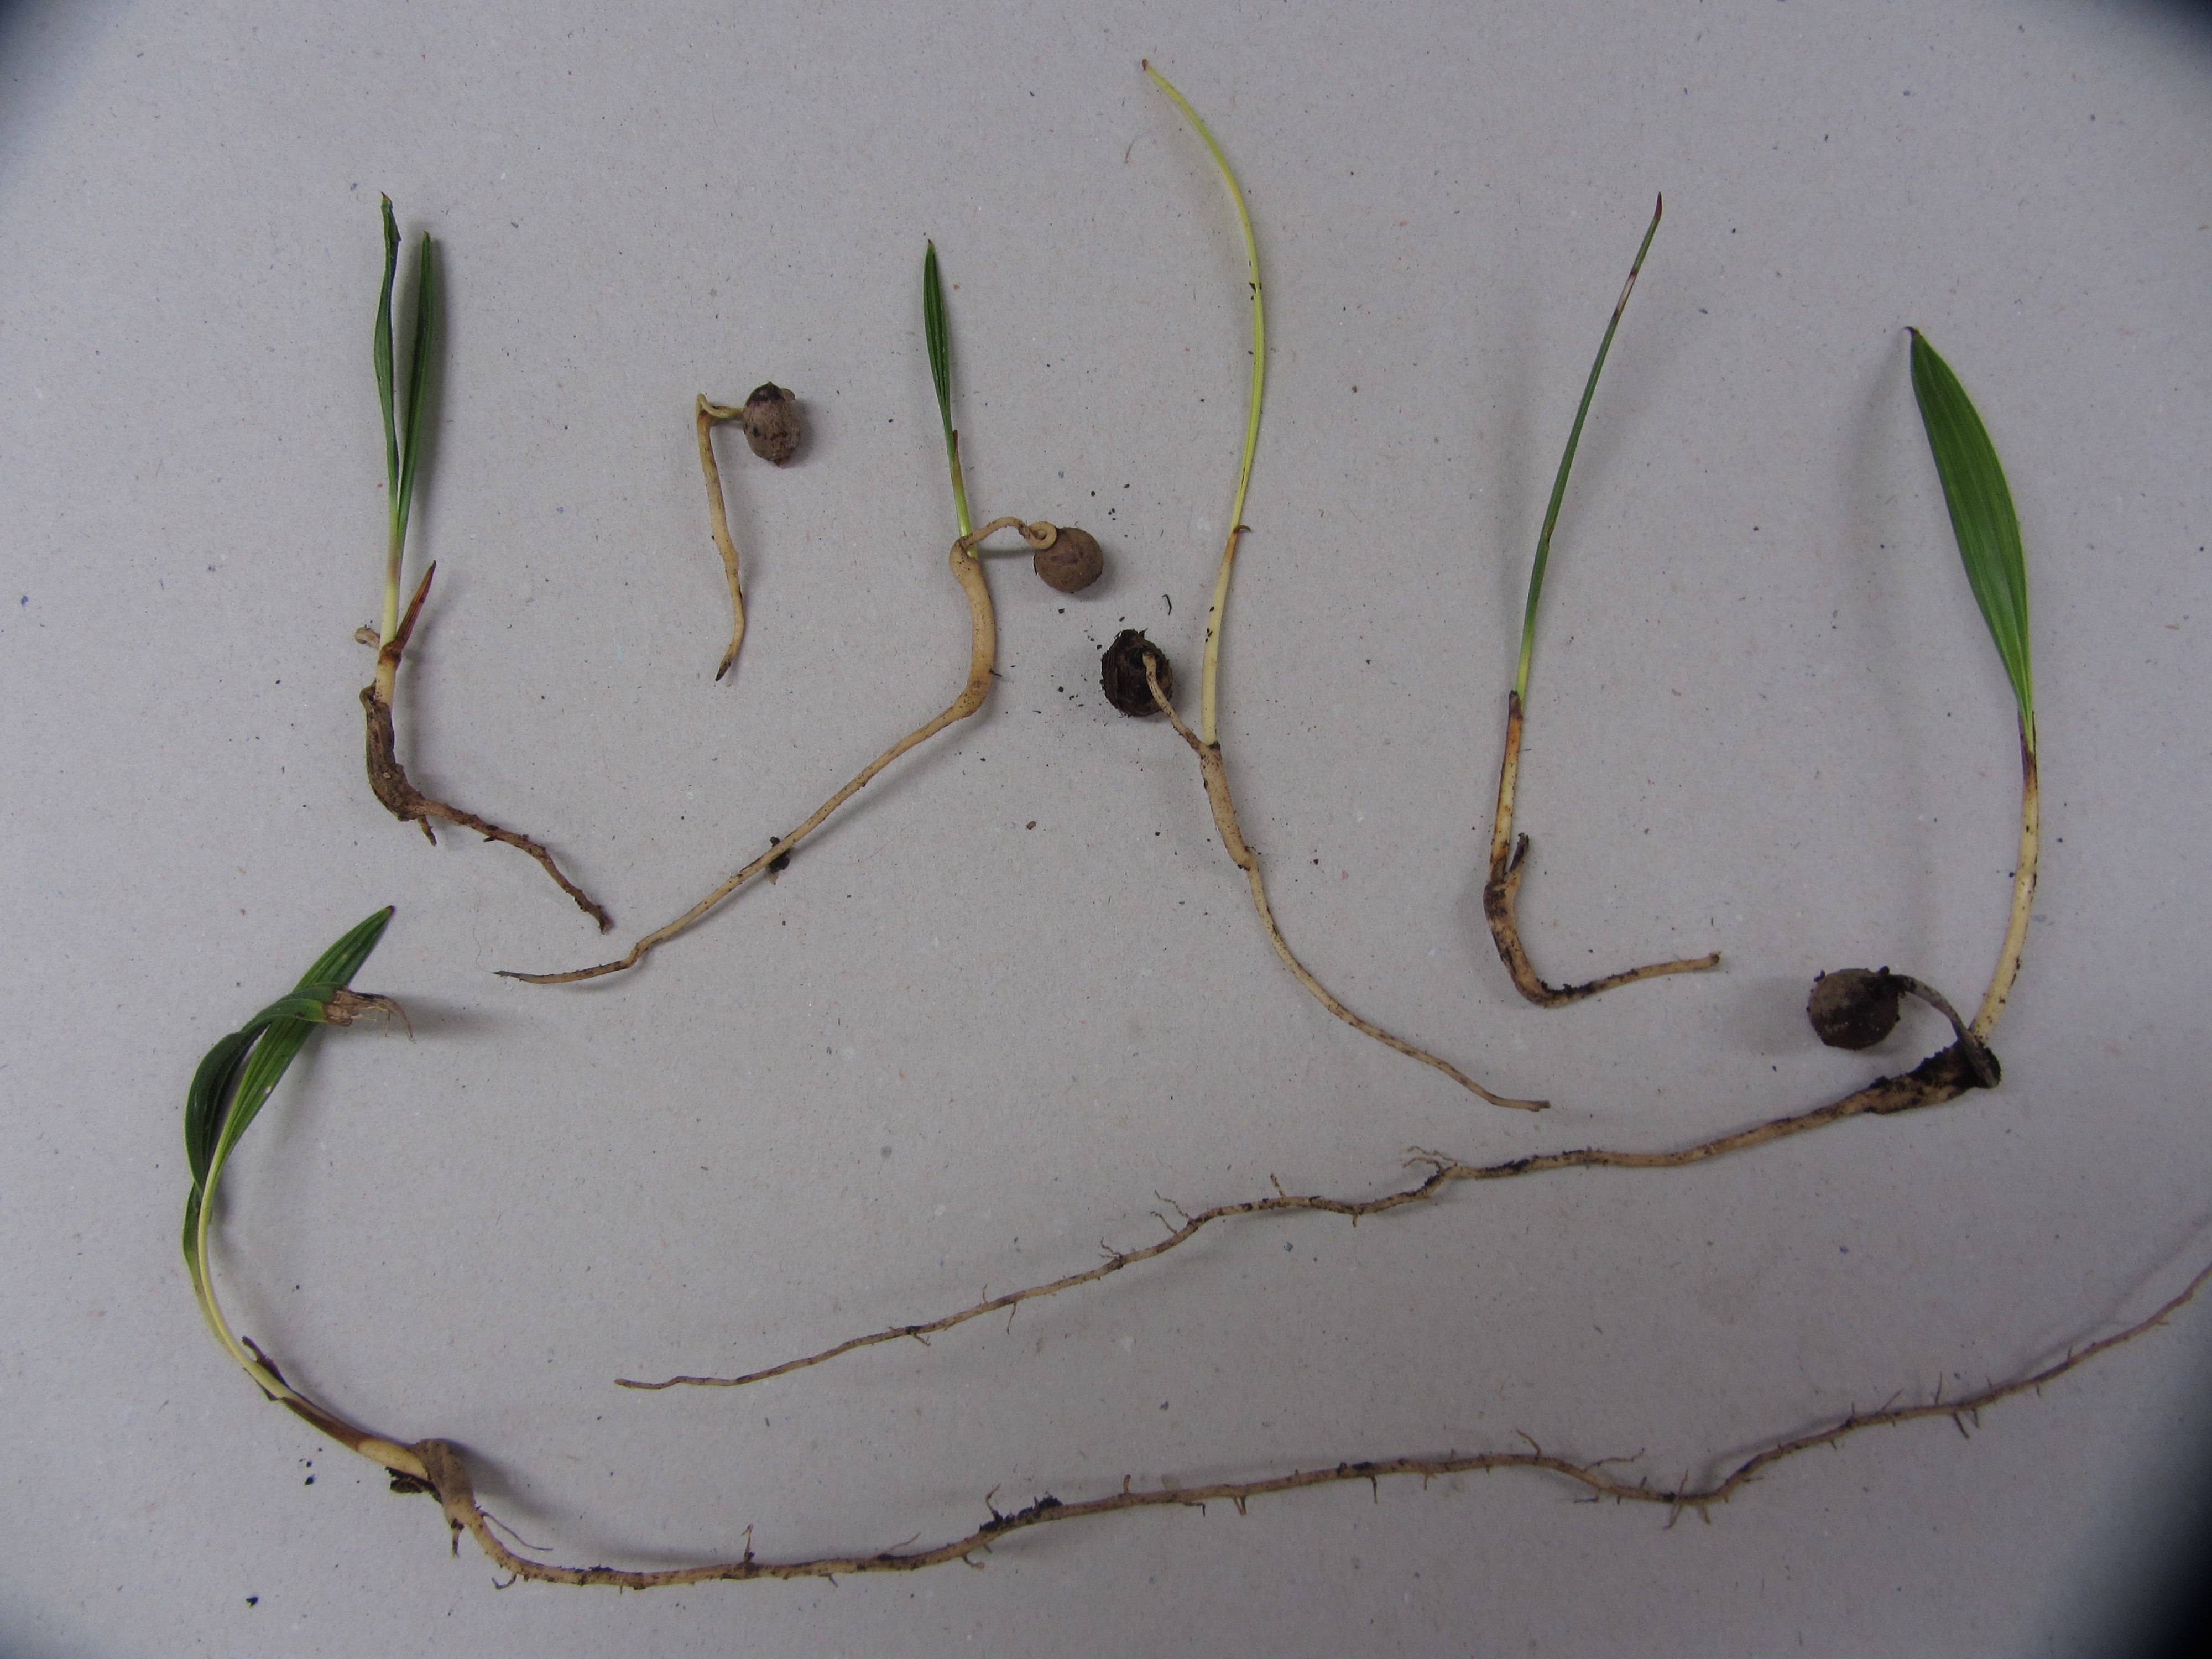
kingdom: Plantae
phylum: Tracheophyta
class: Liliopsida
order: Arecales
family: Arecaceae
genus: Chamaerops
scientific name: Chamaerops humilis
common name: Dwarf fan palm
